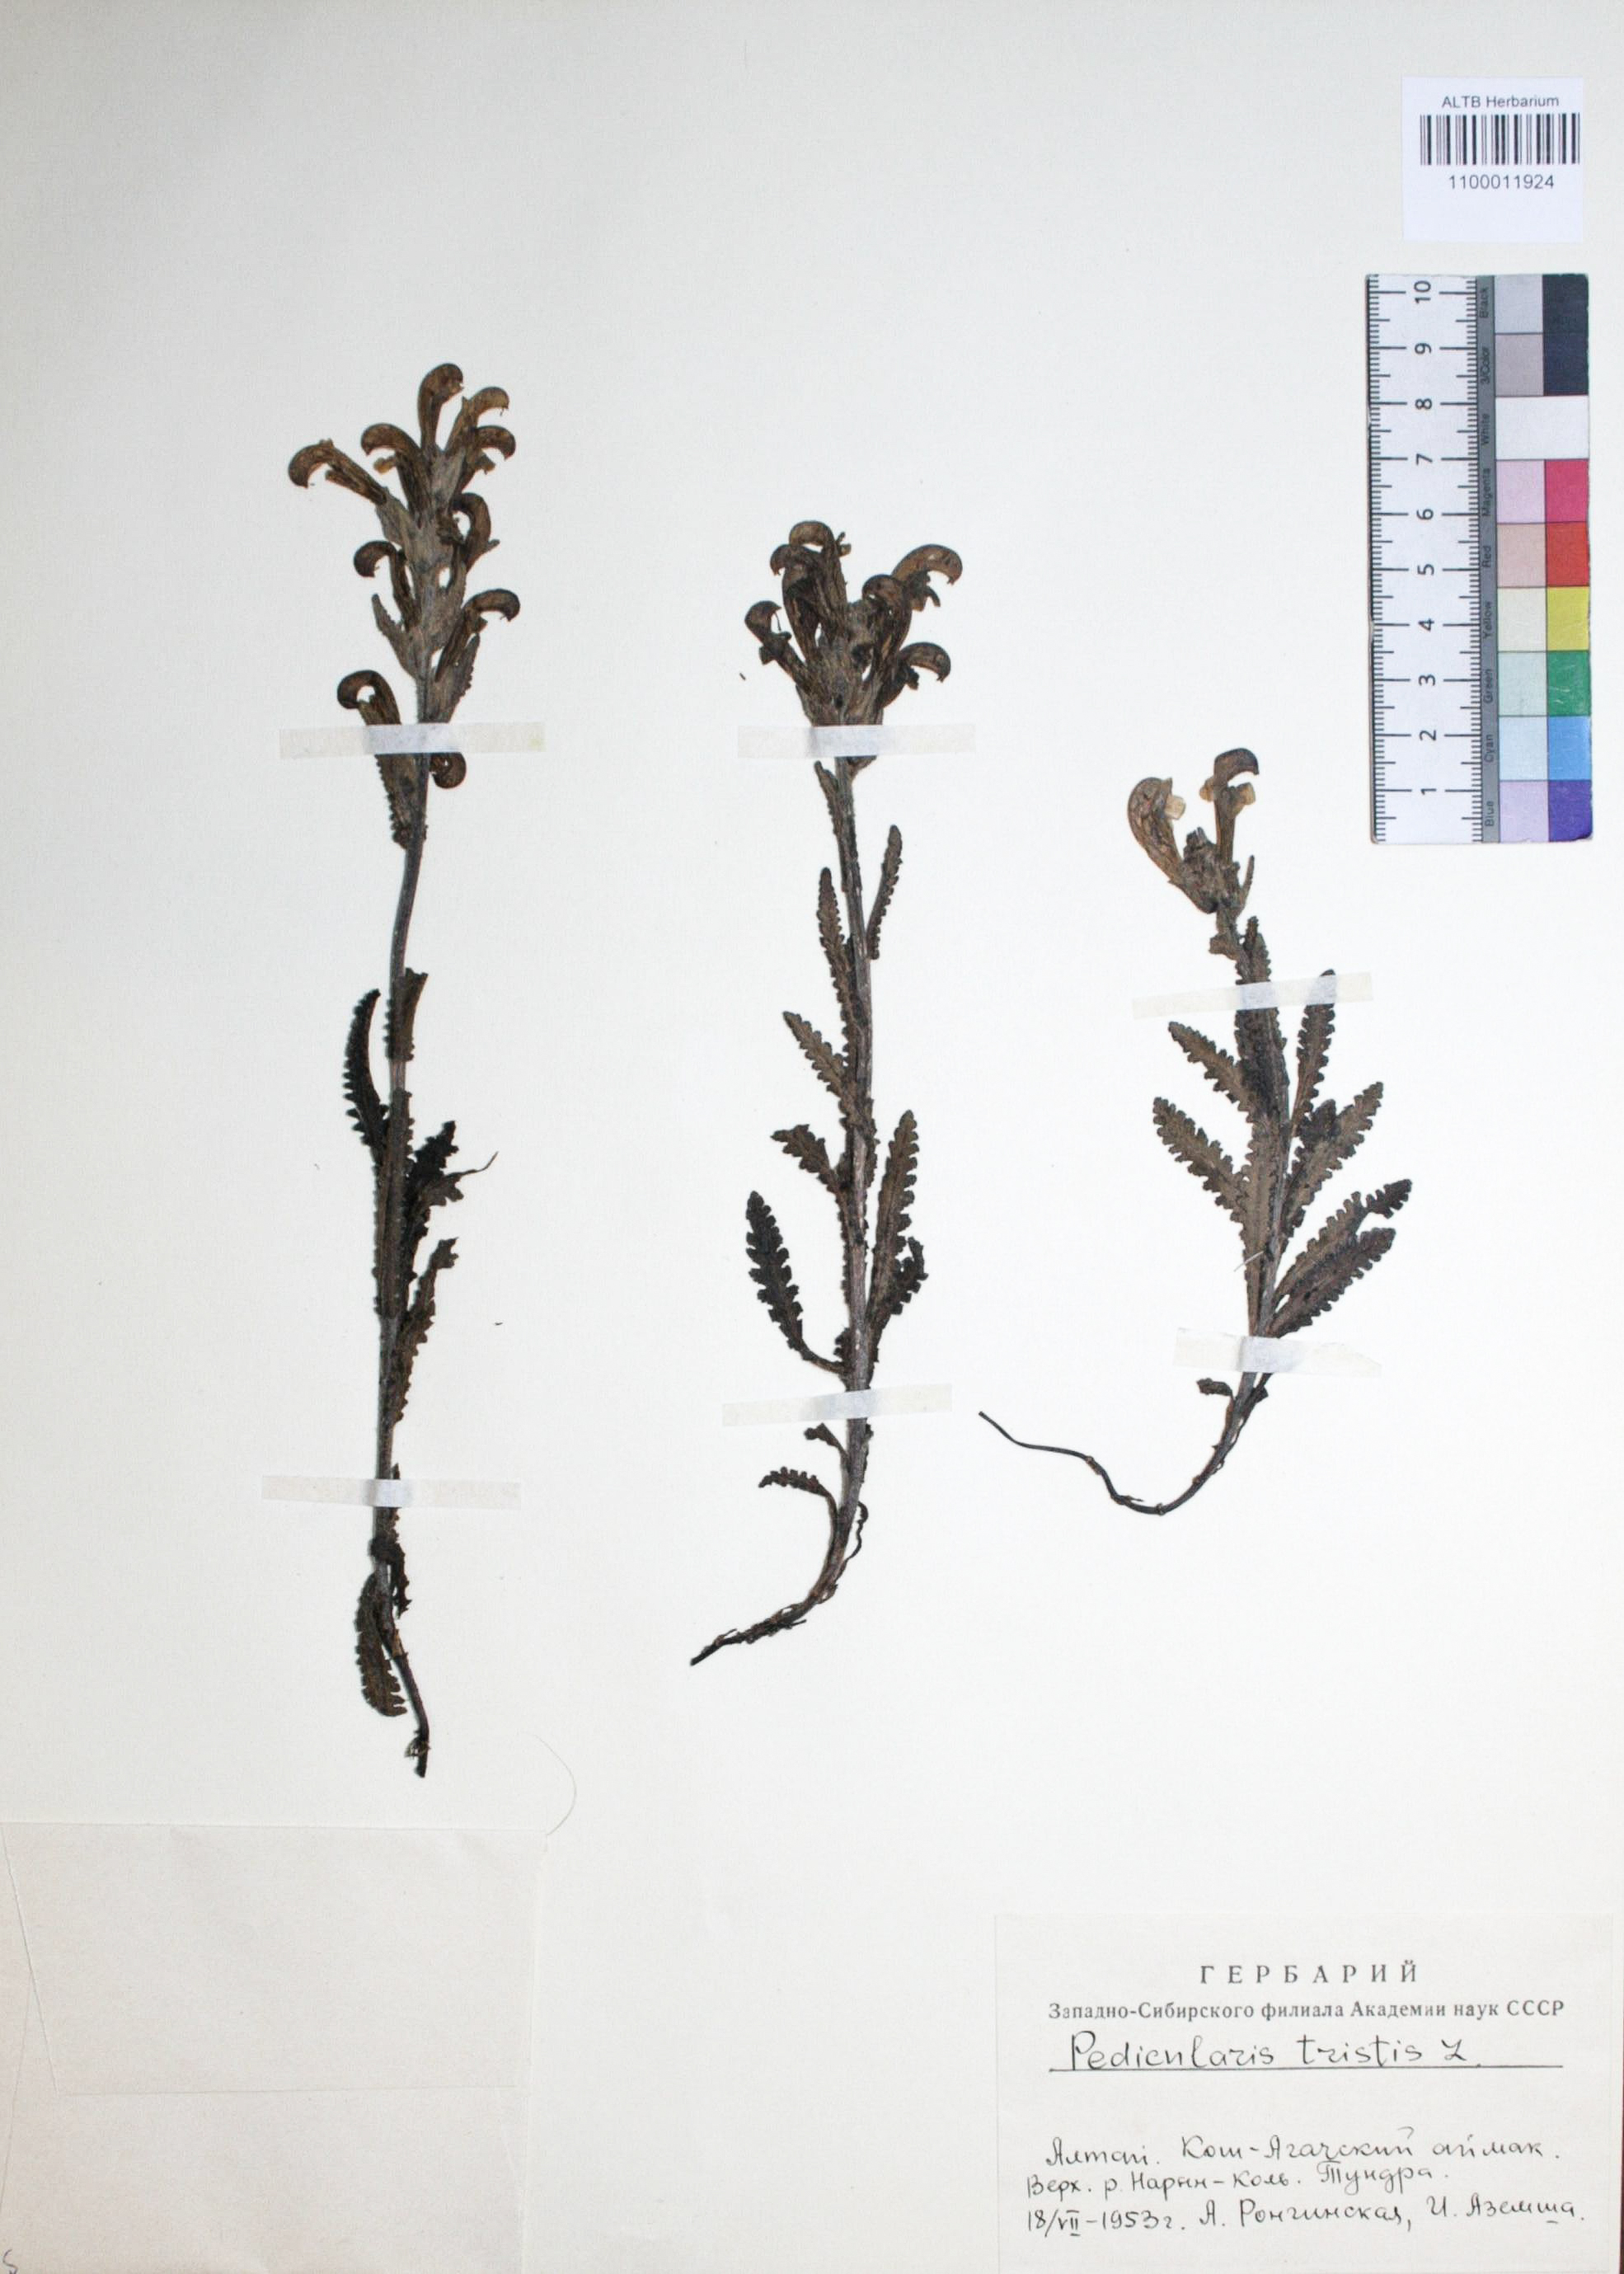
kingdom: Plantae
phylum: Tracheophyta
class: Magnoliopsida
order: Lamiales
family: Orobanchaceae
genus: Pedicularis
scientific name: Pedicularis tristis
